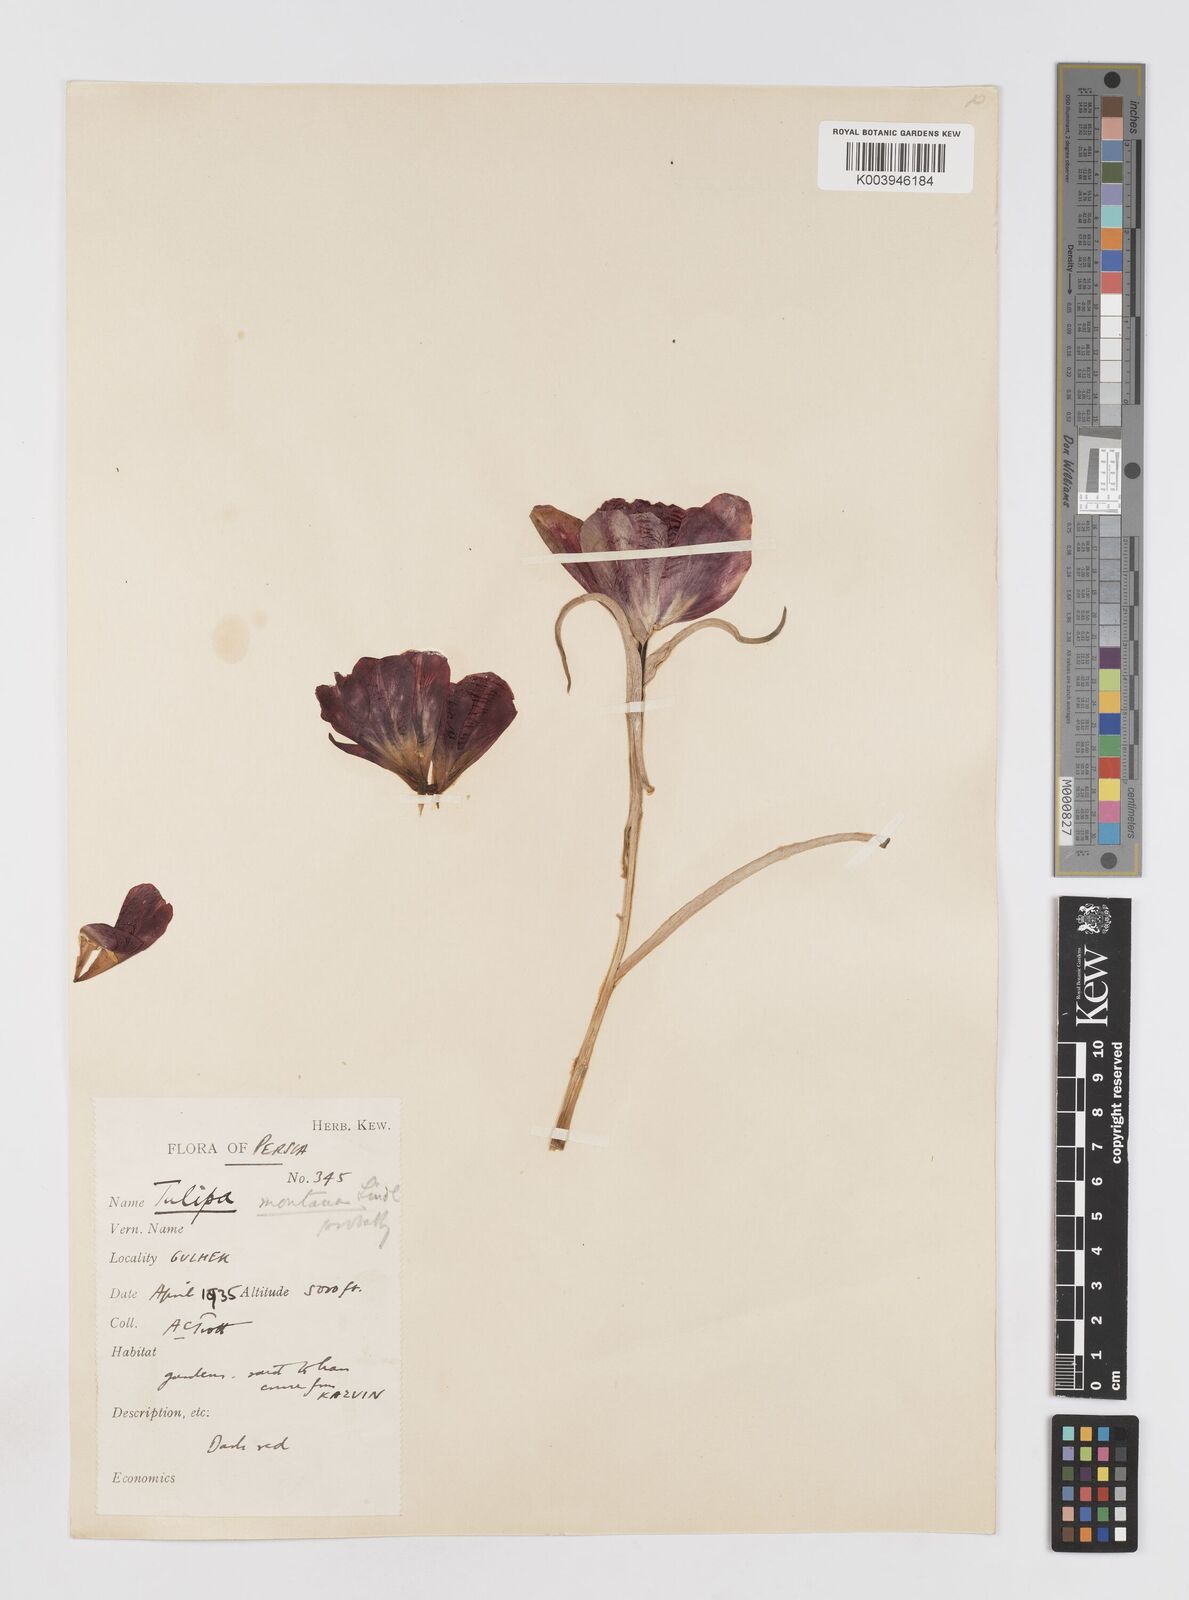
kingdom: Plantae
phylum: Tracheophyta
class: Liliopsida
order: Liliales
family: Liliaceae
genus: Tulipa
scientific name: Tulipa montana
